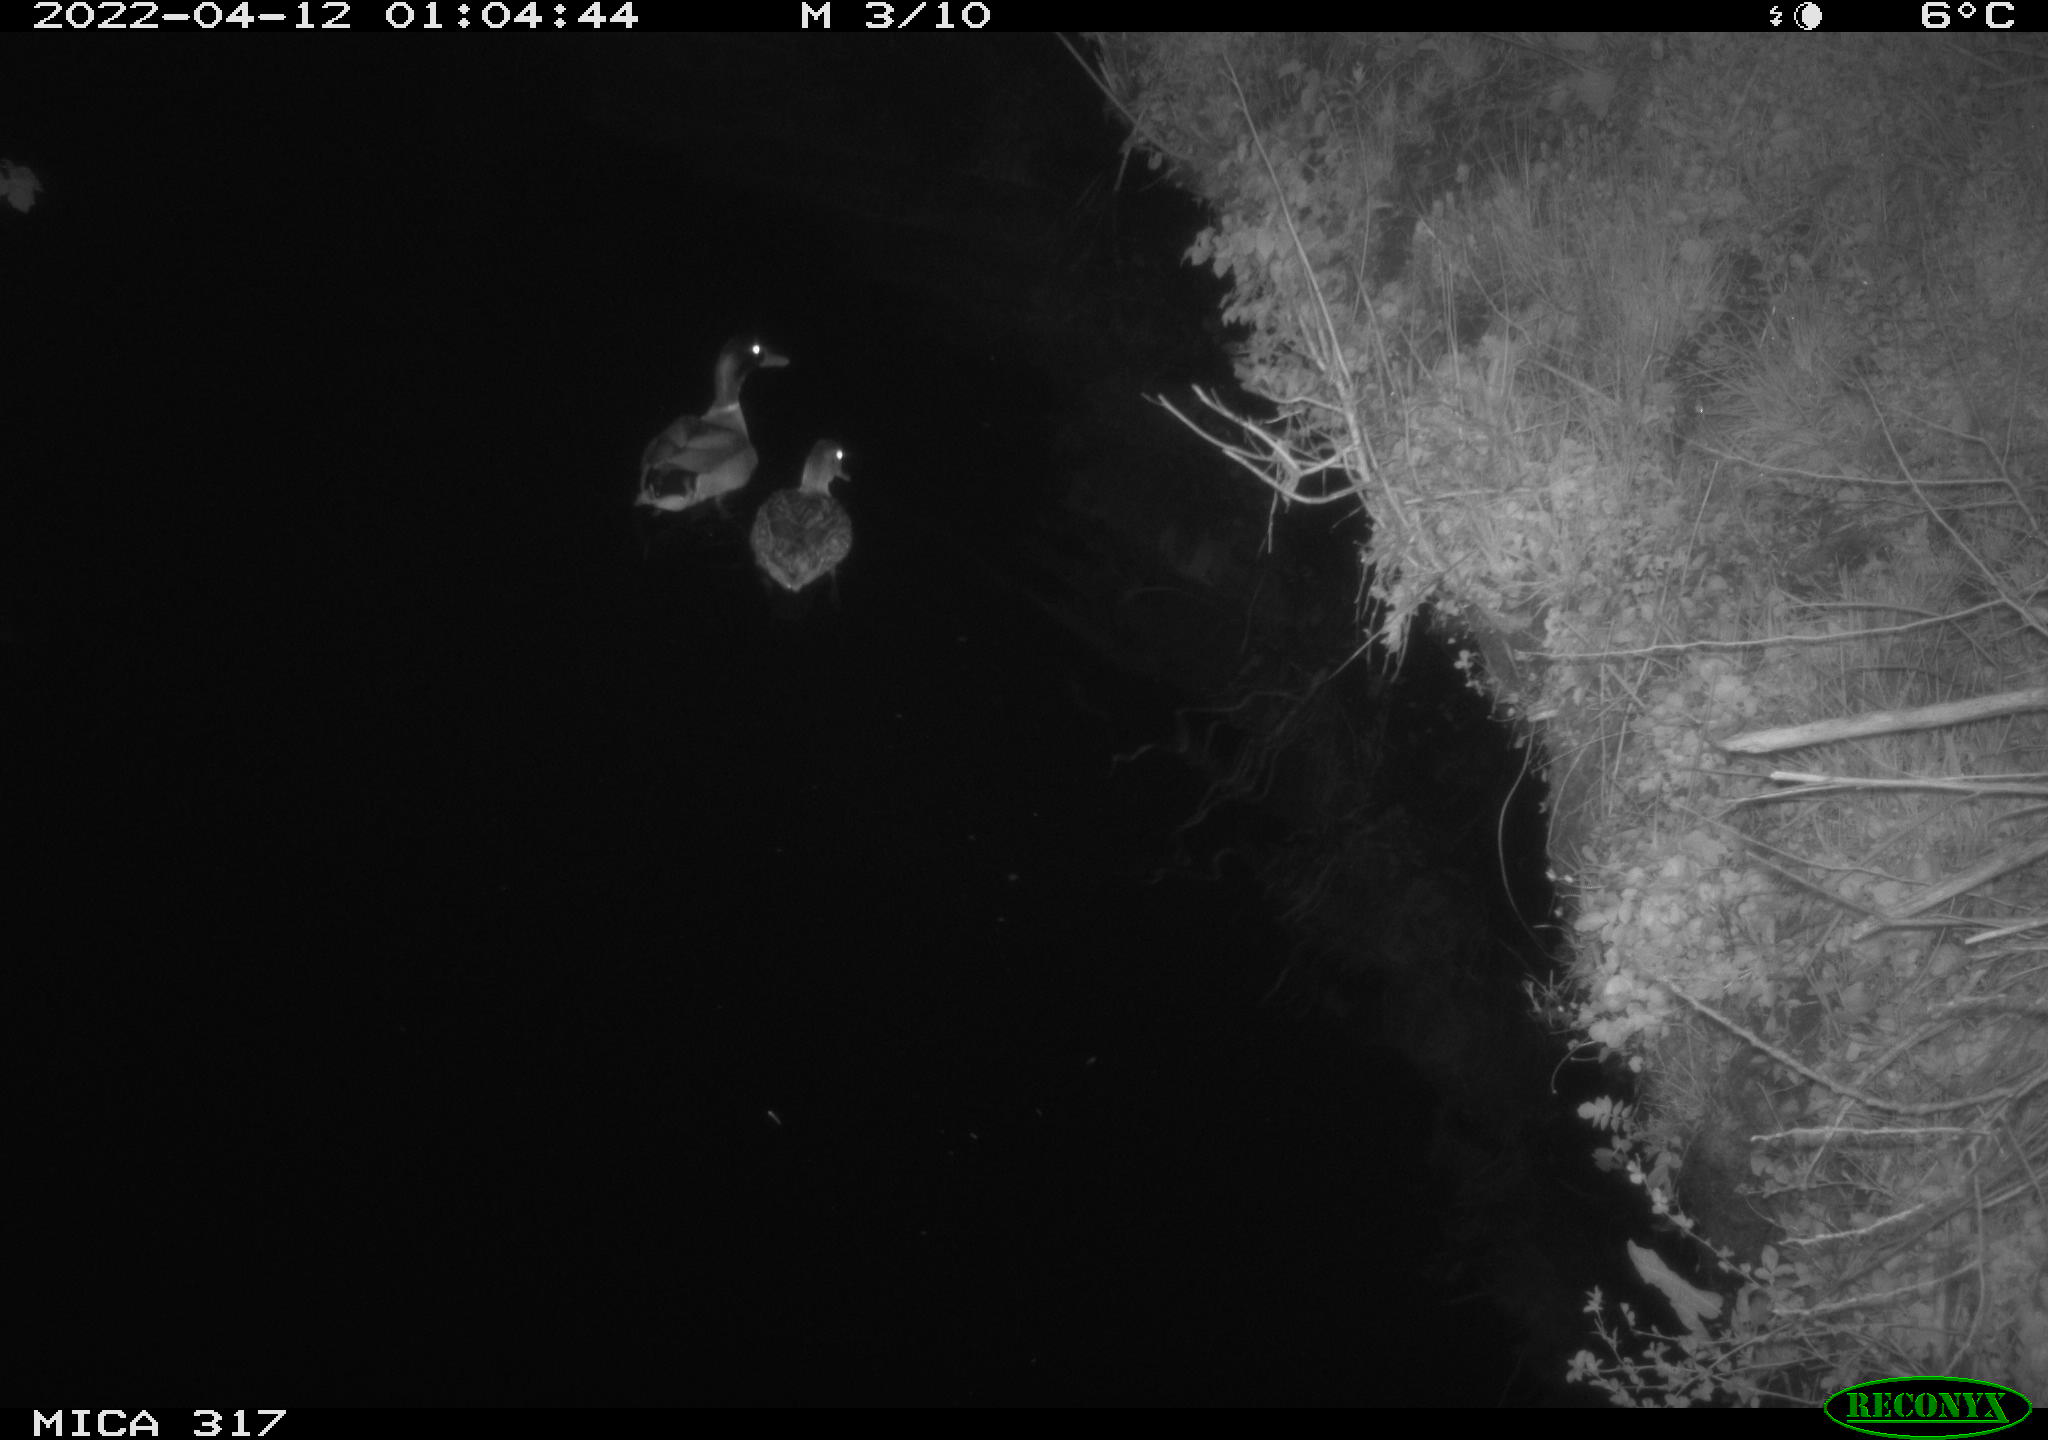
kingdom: Animalia
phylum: Chordata
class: Aves
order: Anseriformes
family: Anatidae
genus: Anas
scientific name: Anas platyrhynchos
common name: Mallard
